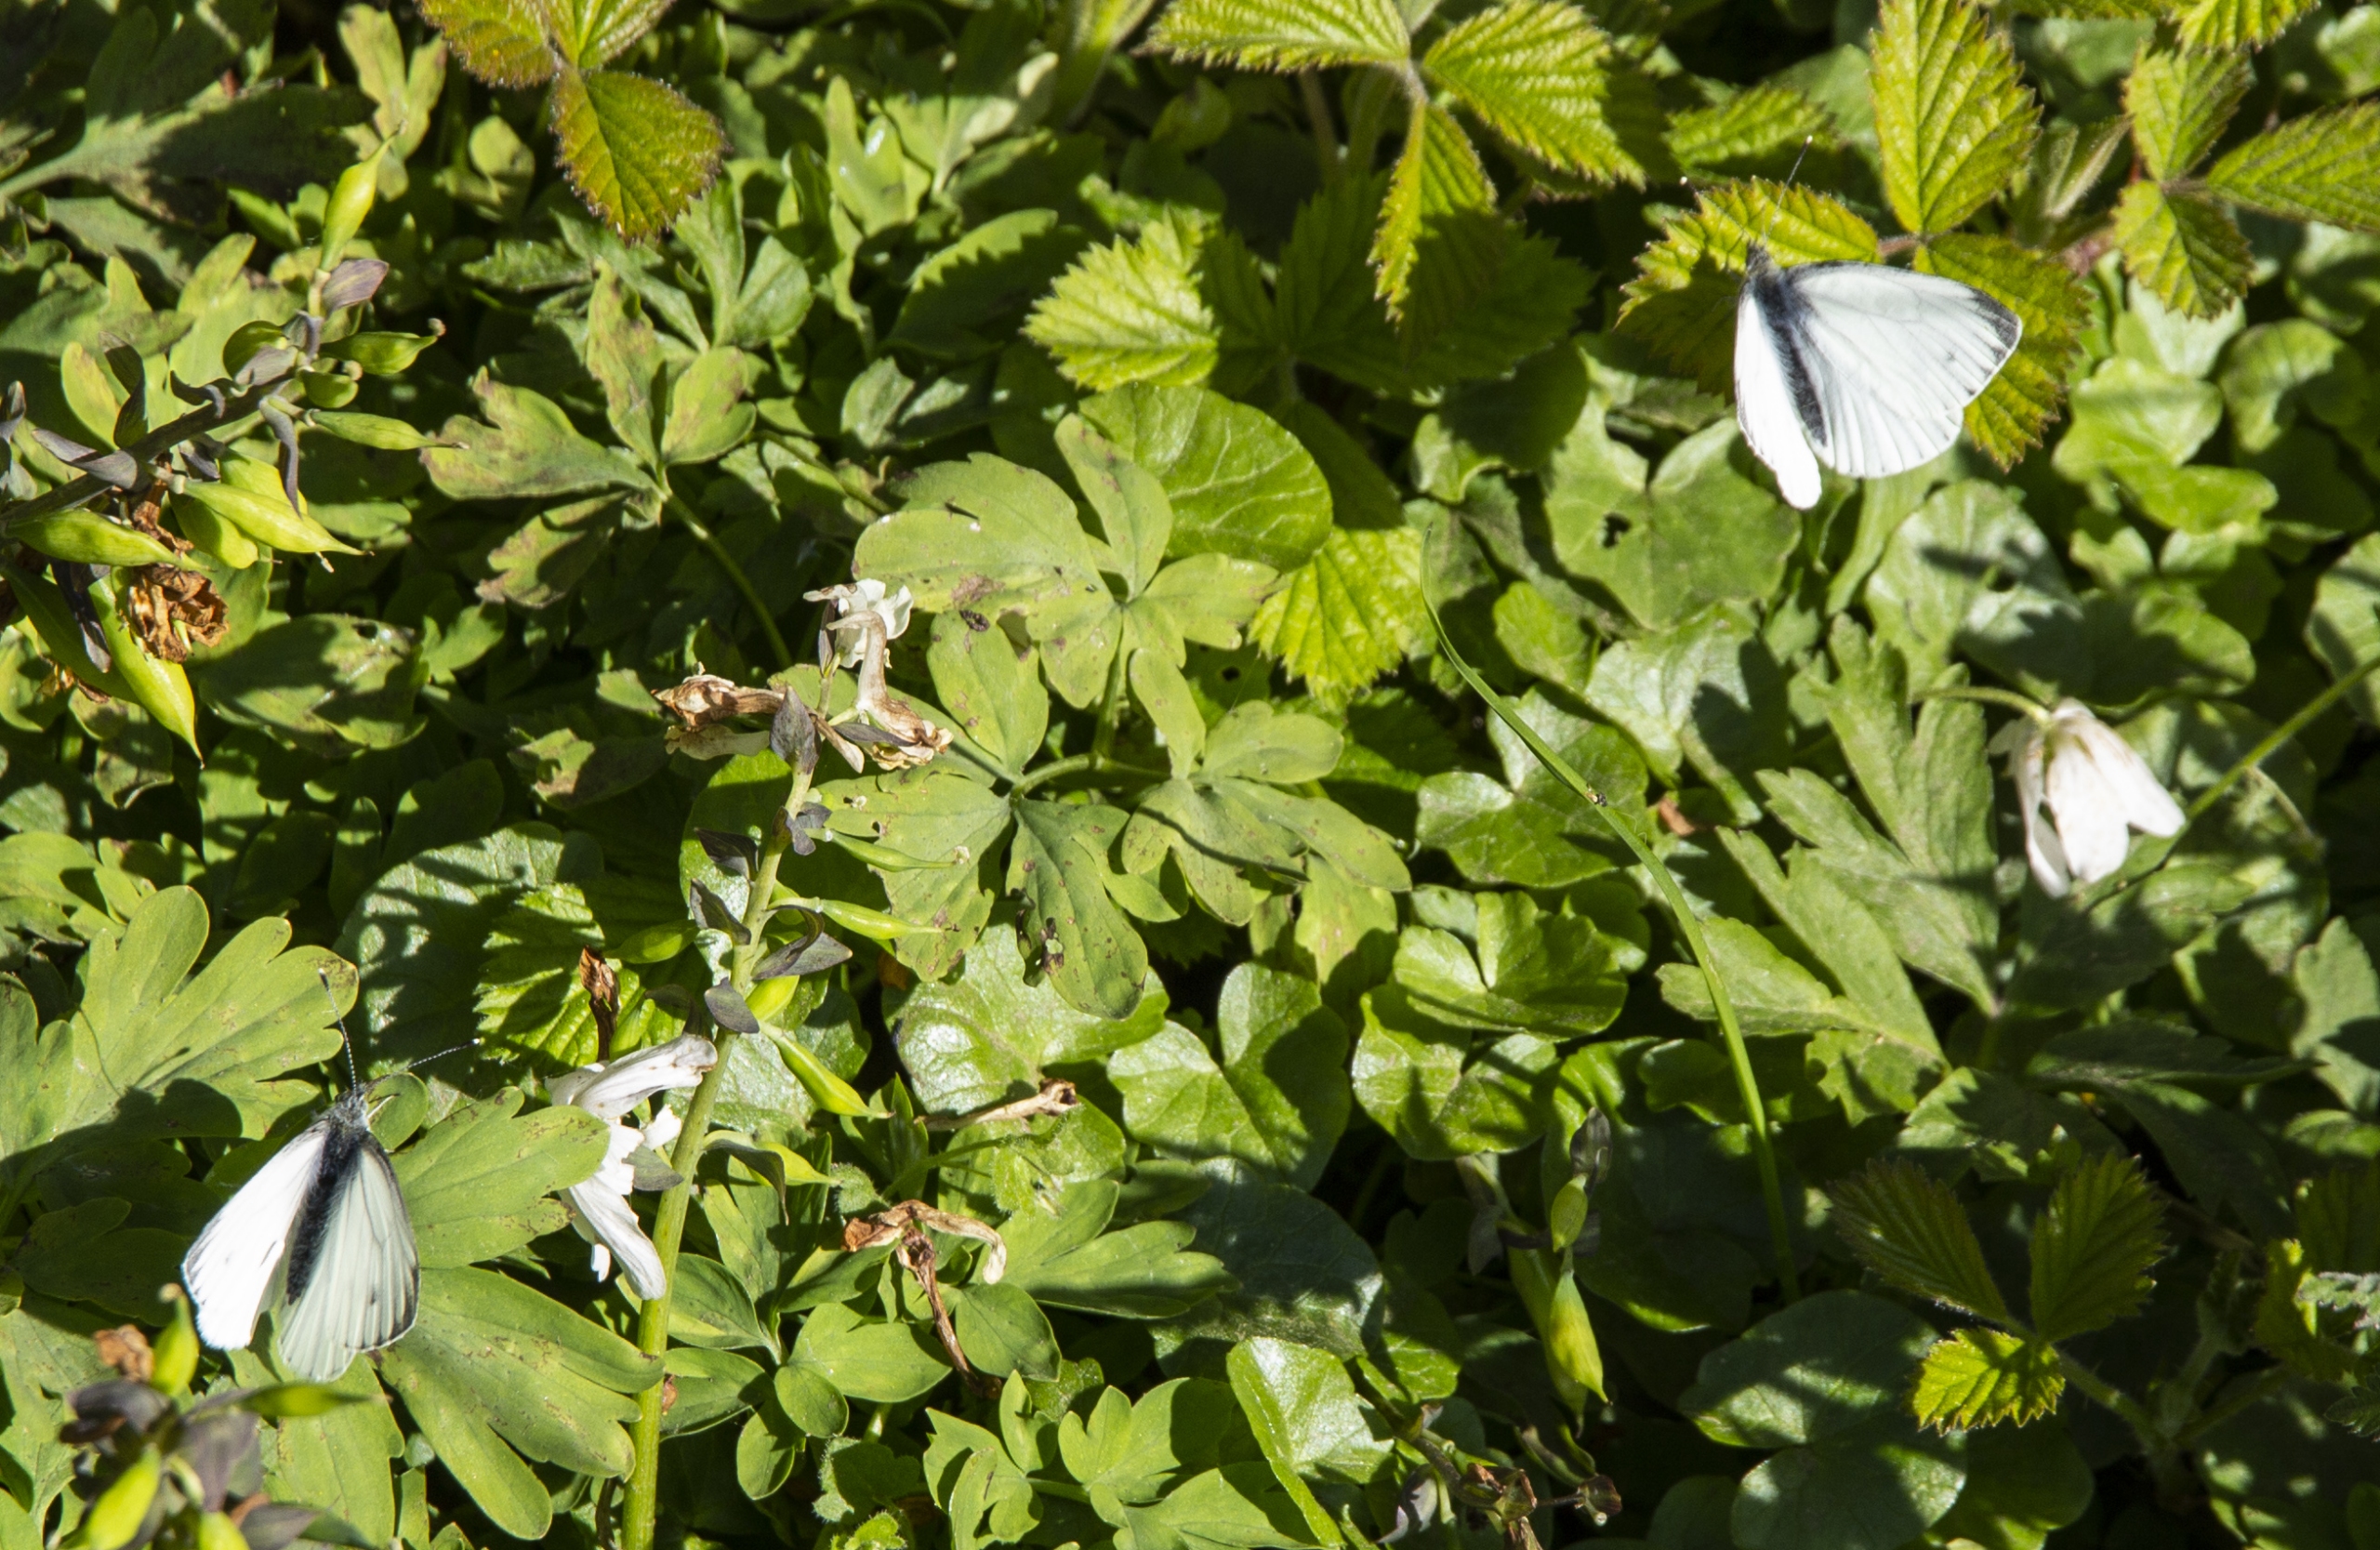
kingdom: Animalia
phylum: Arthropoda
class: Insecta
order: Lepidoptera
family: Pieridae
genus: Pieris
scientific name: Pieris napi
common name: Grønåret kålsommerfugl
